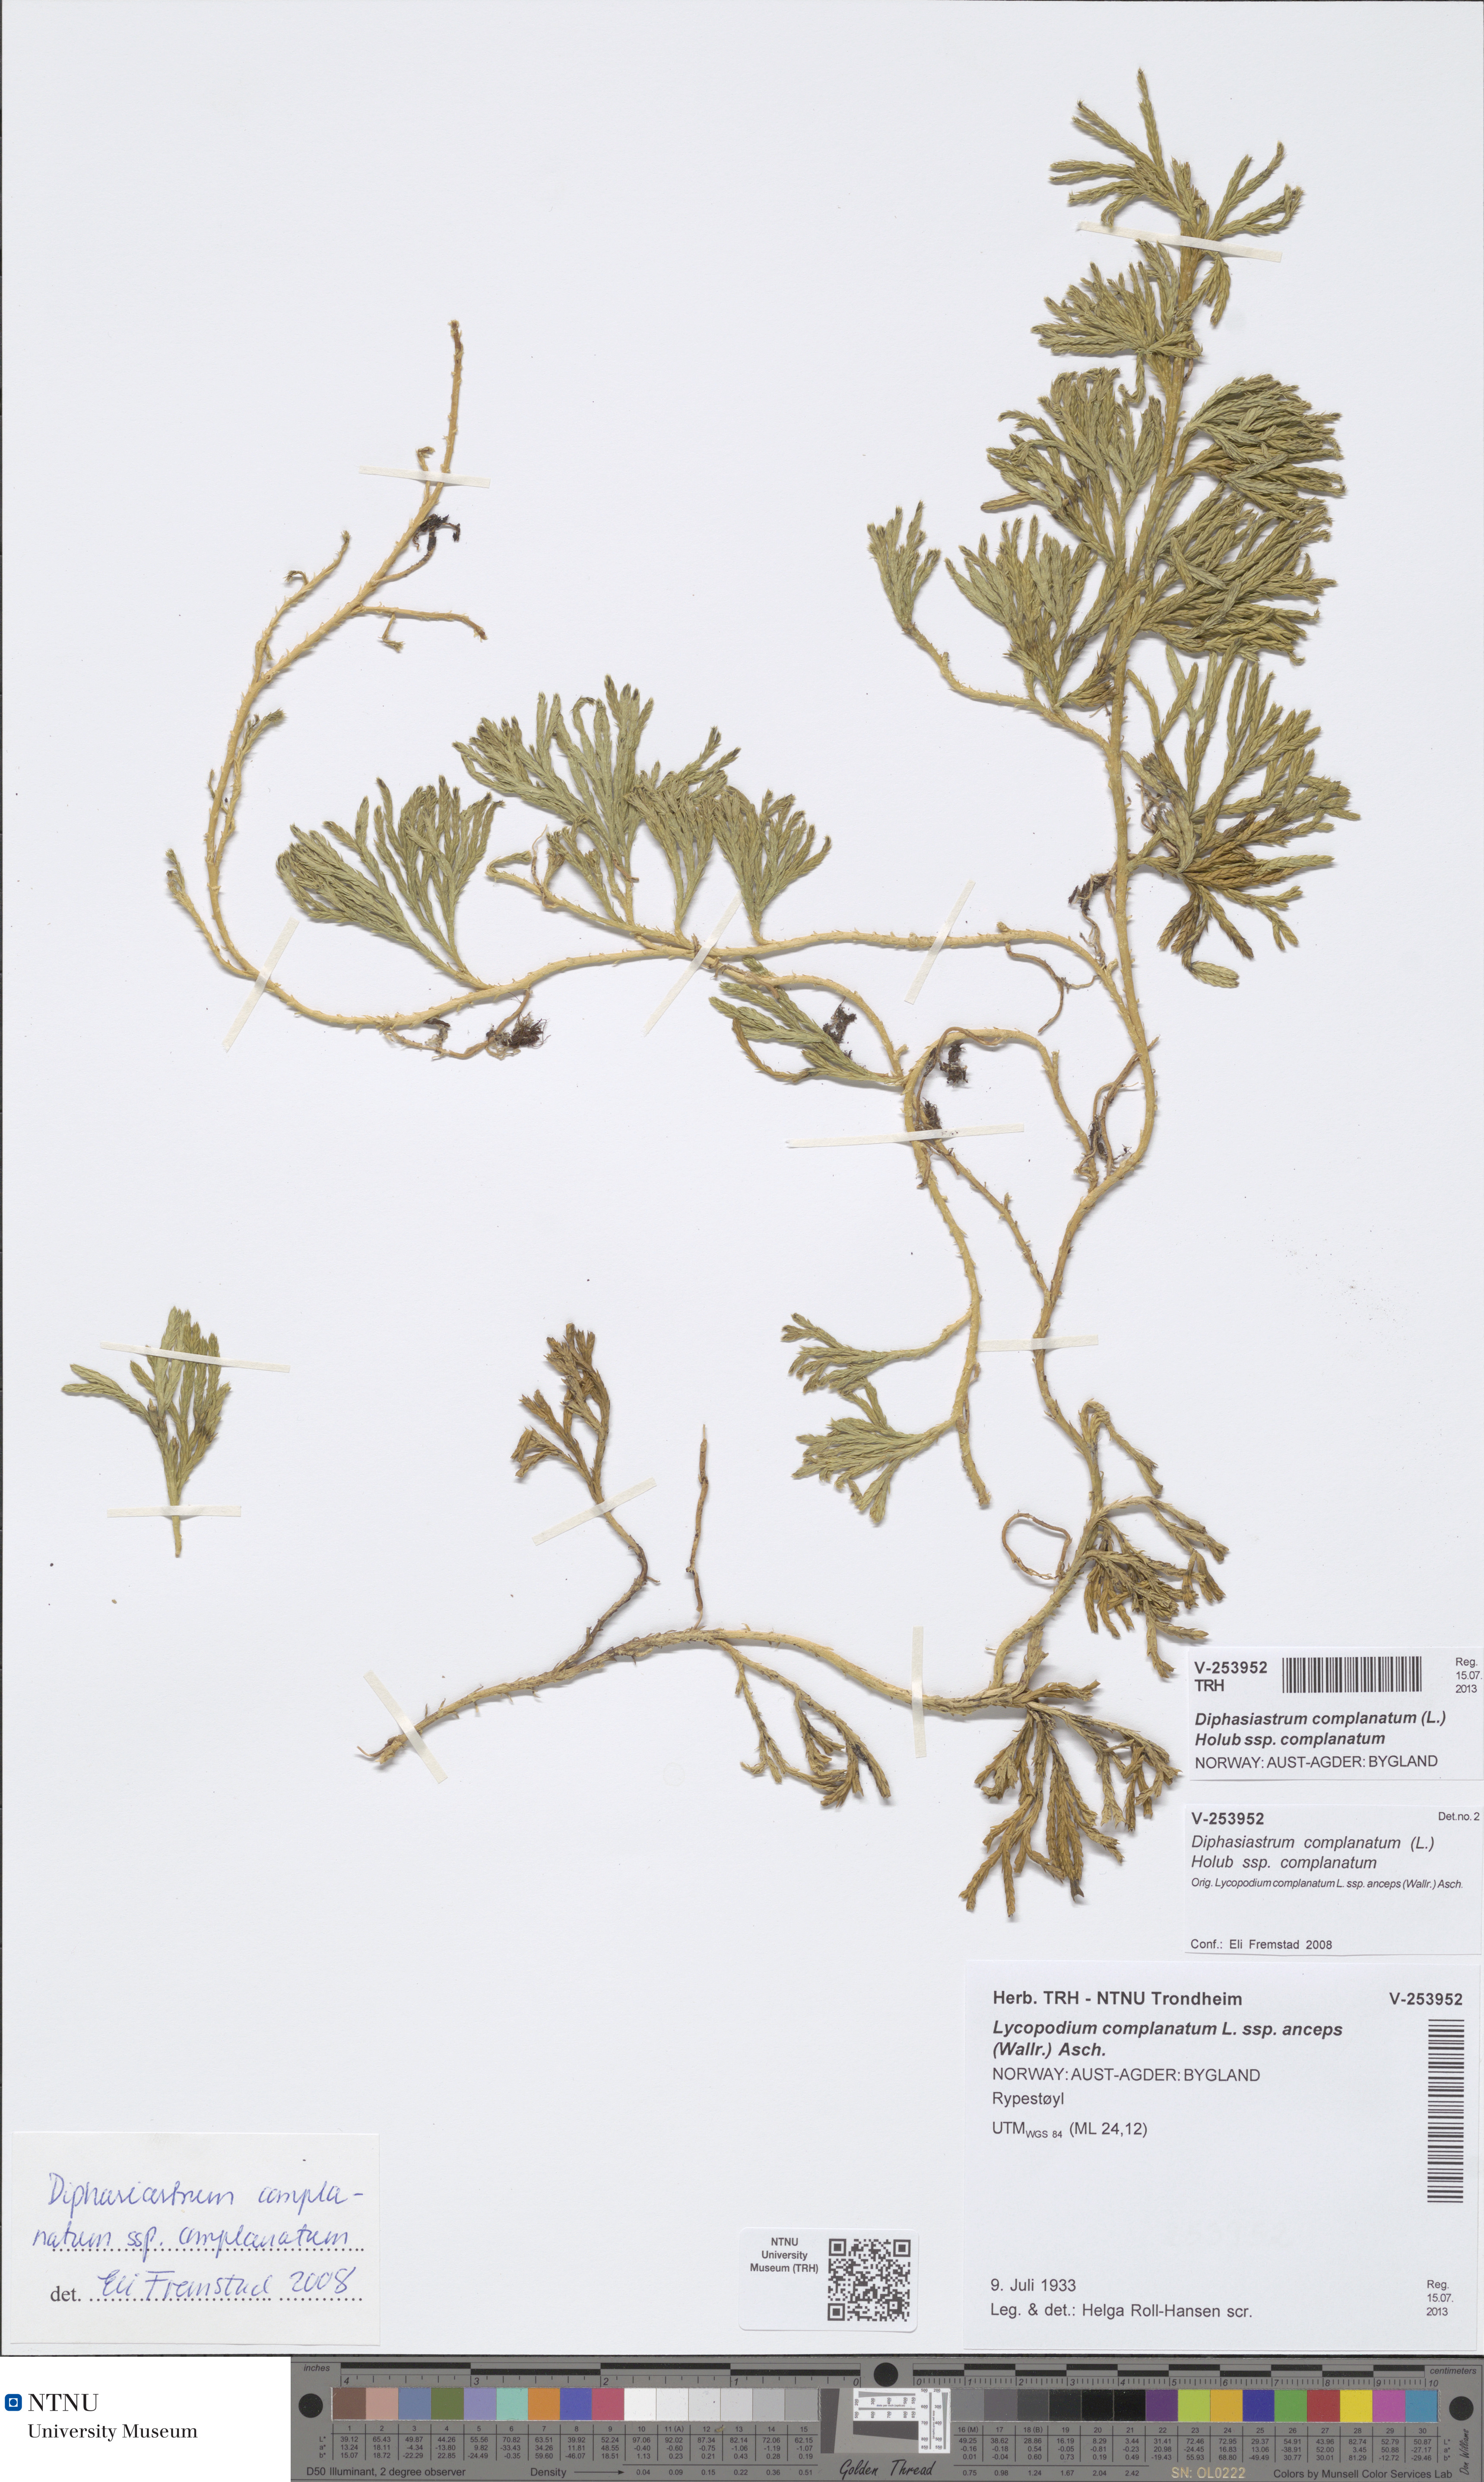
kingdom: Plantae
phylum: Tracheophyta
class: Lycopodiopsida
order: Lycopodiales
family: Lycopodiaceae
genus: Diphasiastrum
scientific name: Diphasiastrum complanatum
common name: Northern running-pine
